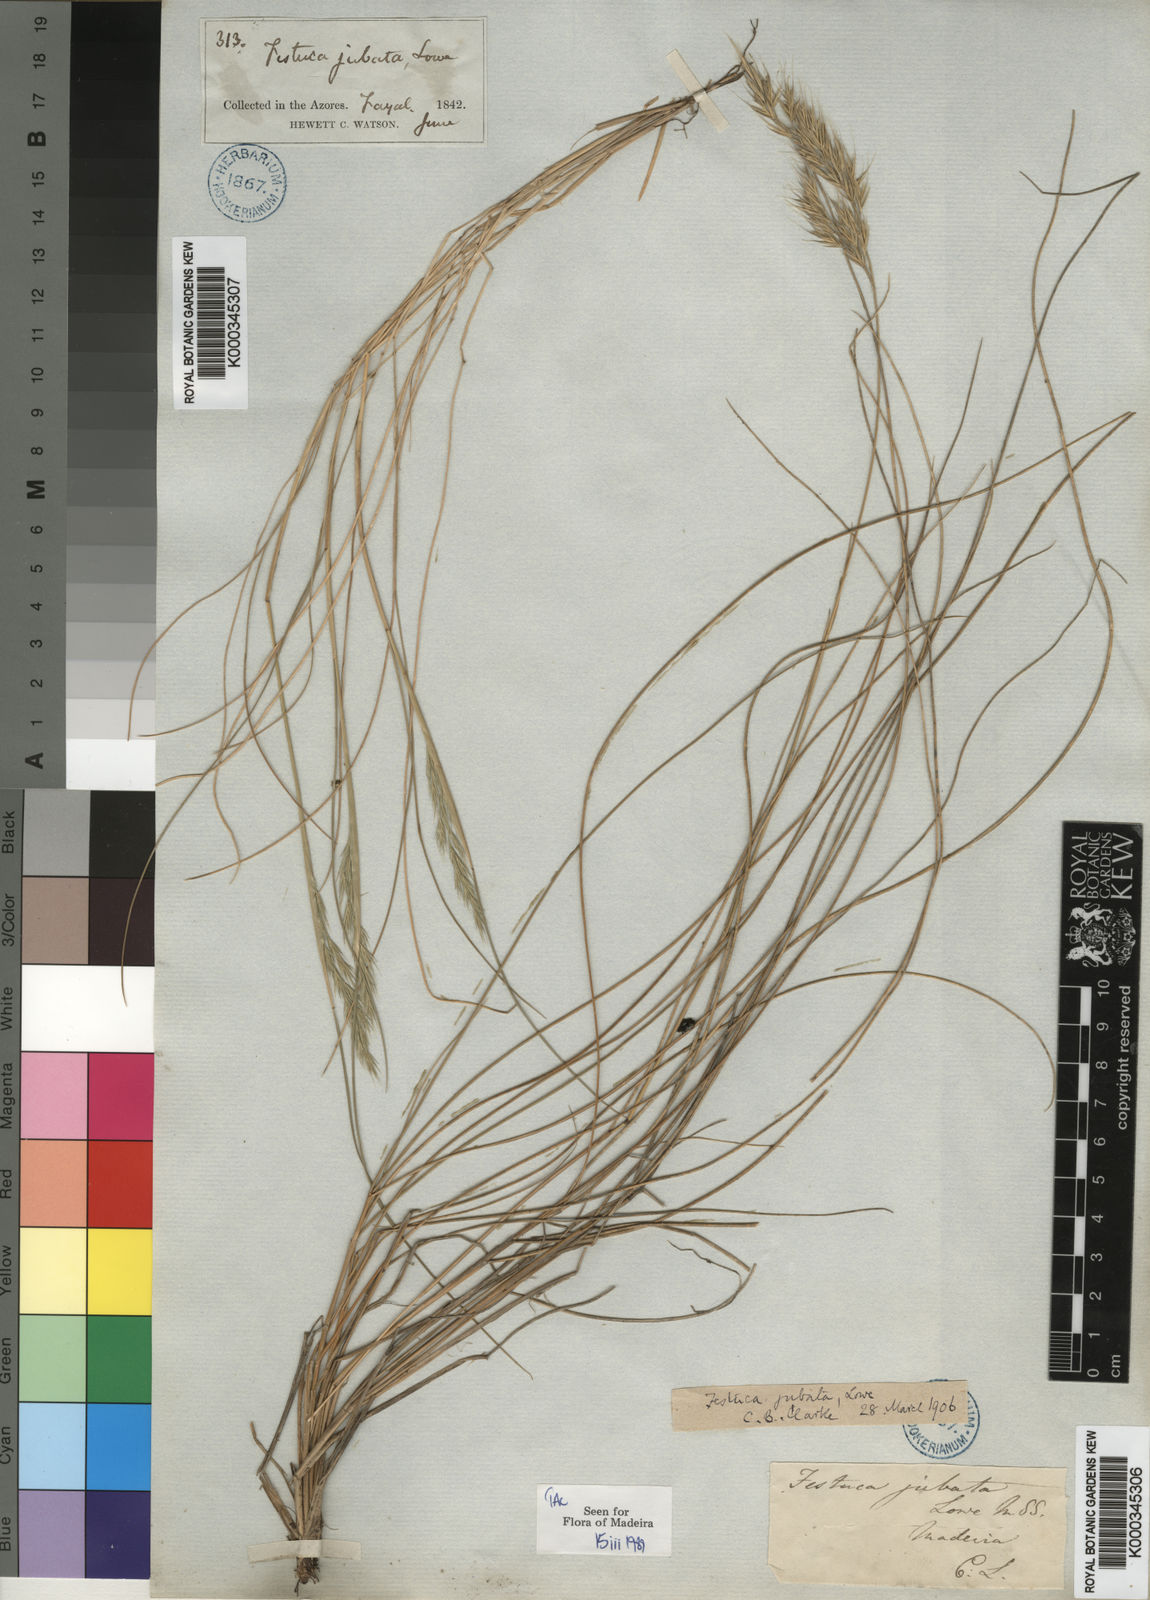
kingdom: Plantae
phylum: Tracheophyta
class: Liliopsida
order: Poales
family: Poaceae
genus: Festuca
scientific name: Festuca jubata
